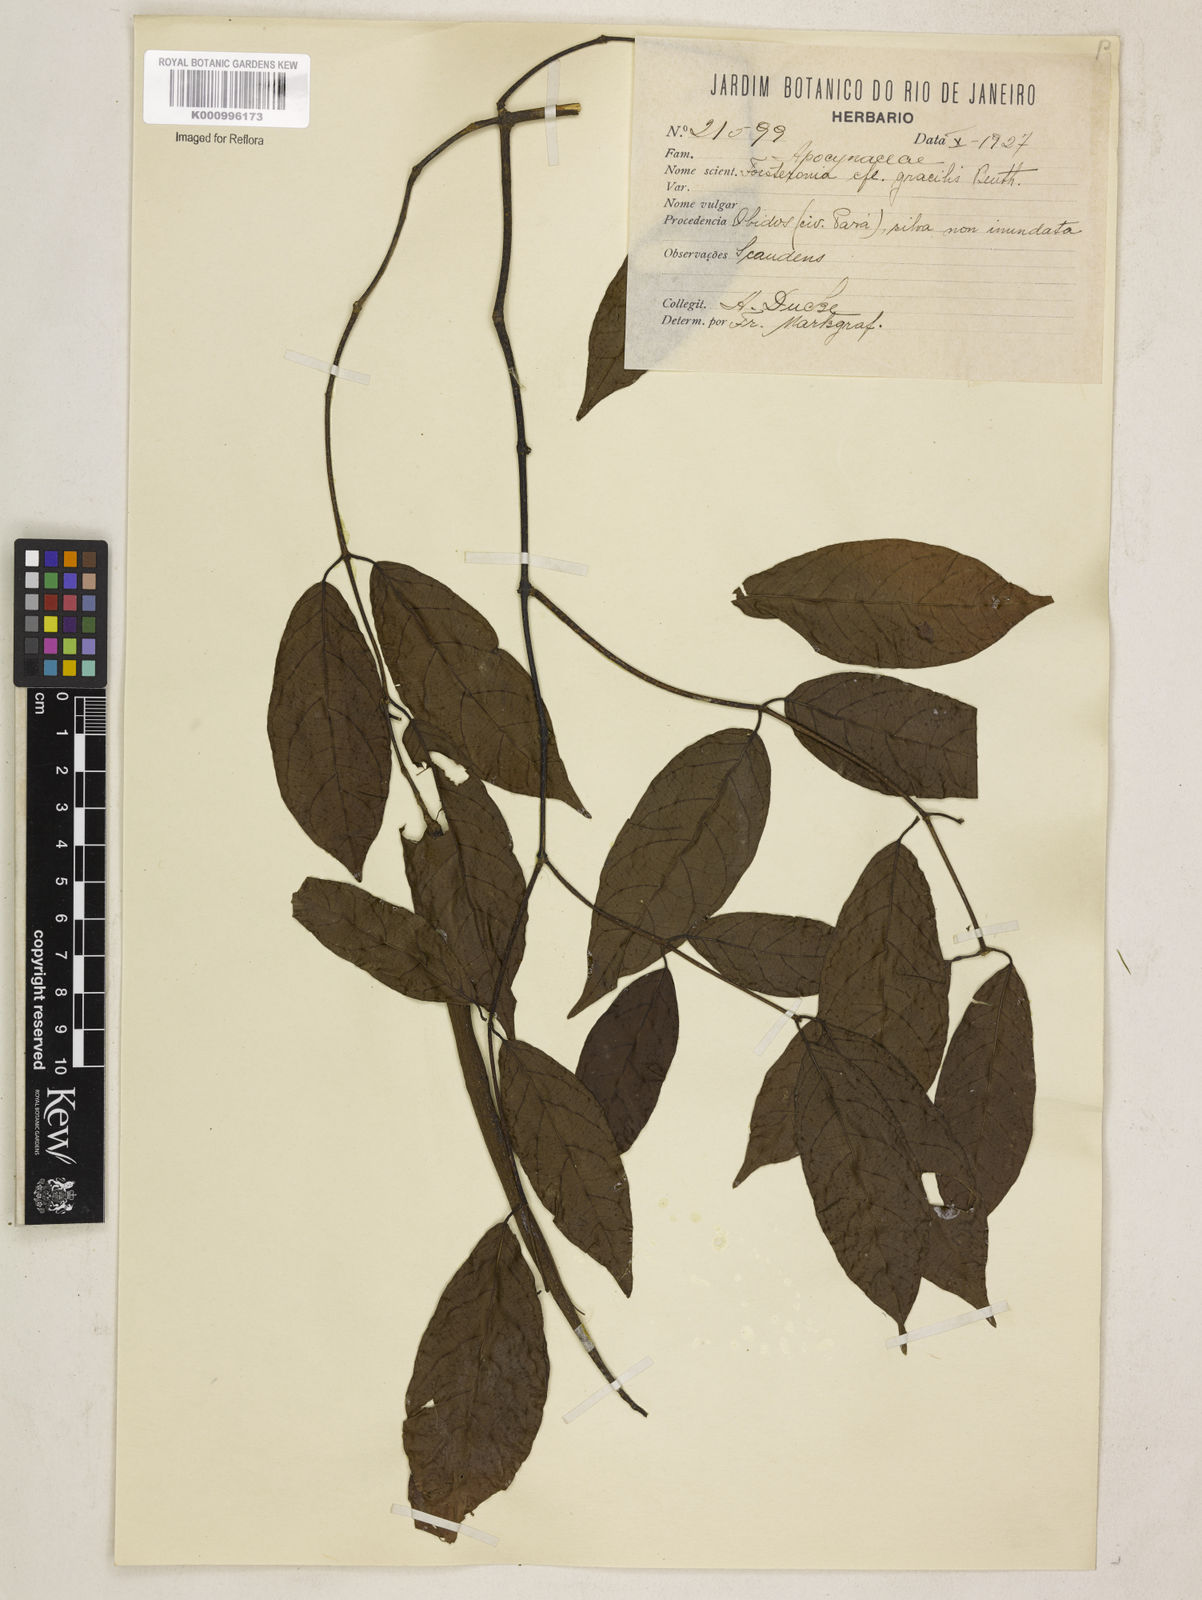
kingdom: Plantae
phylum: Tracheophyta
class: Magnoliopsida
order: Gentianales
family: Apocynaceae
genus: Forsteronia
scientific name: Forsteronia
